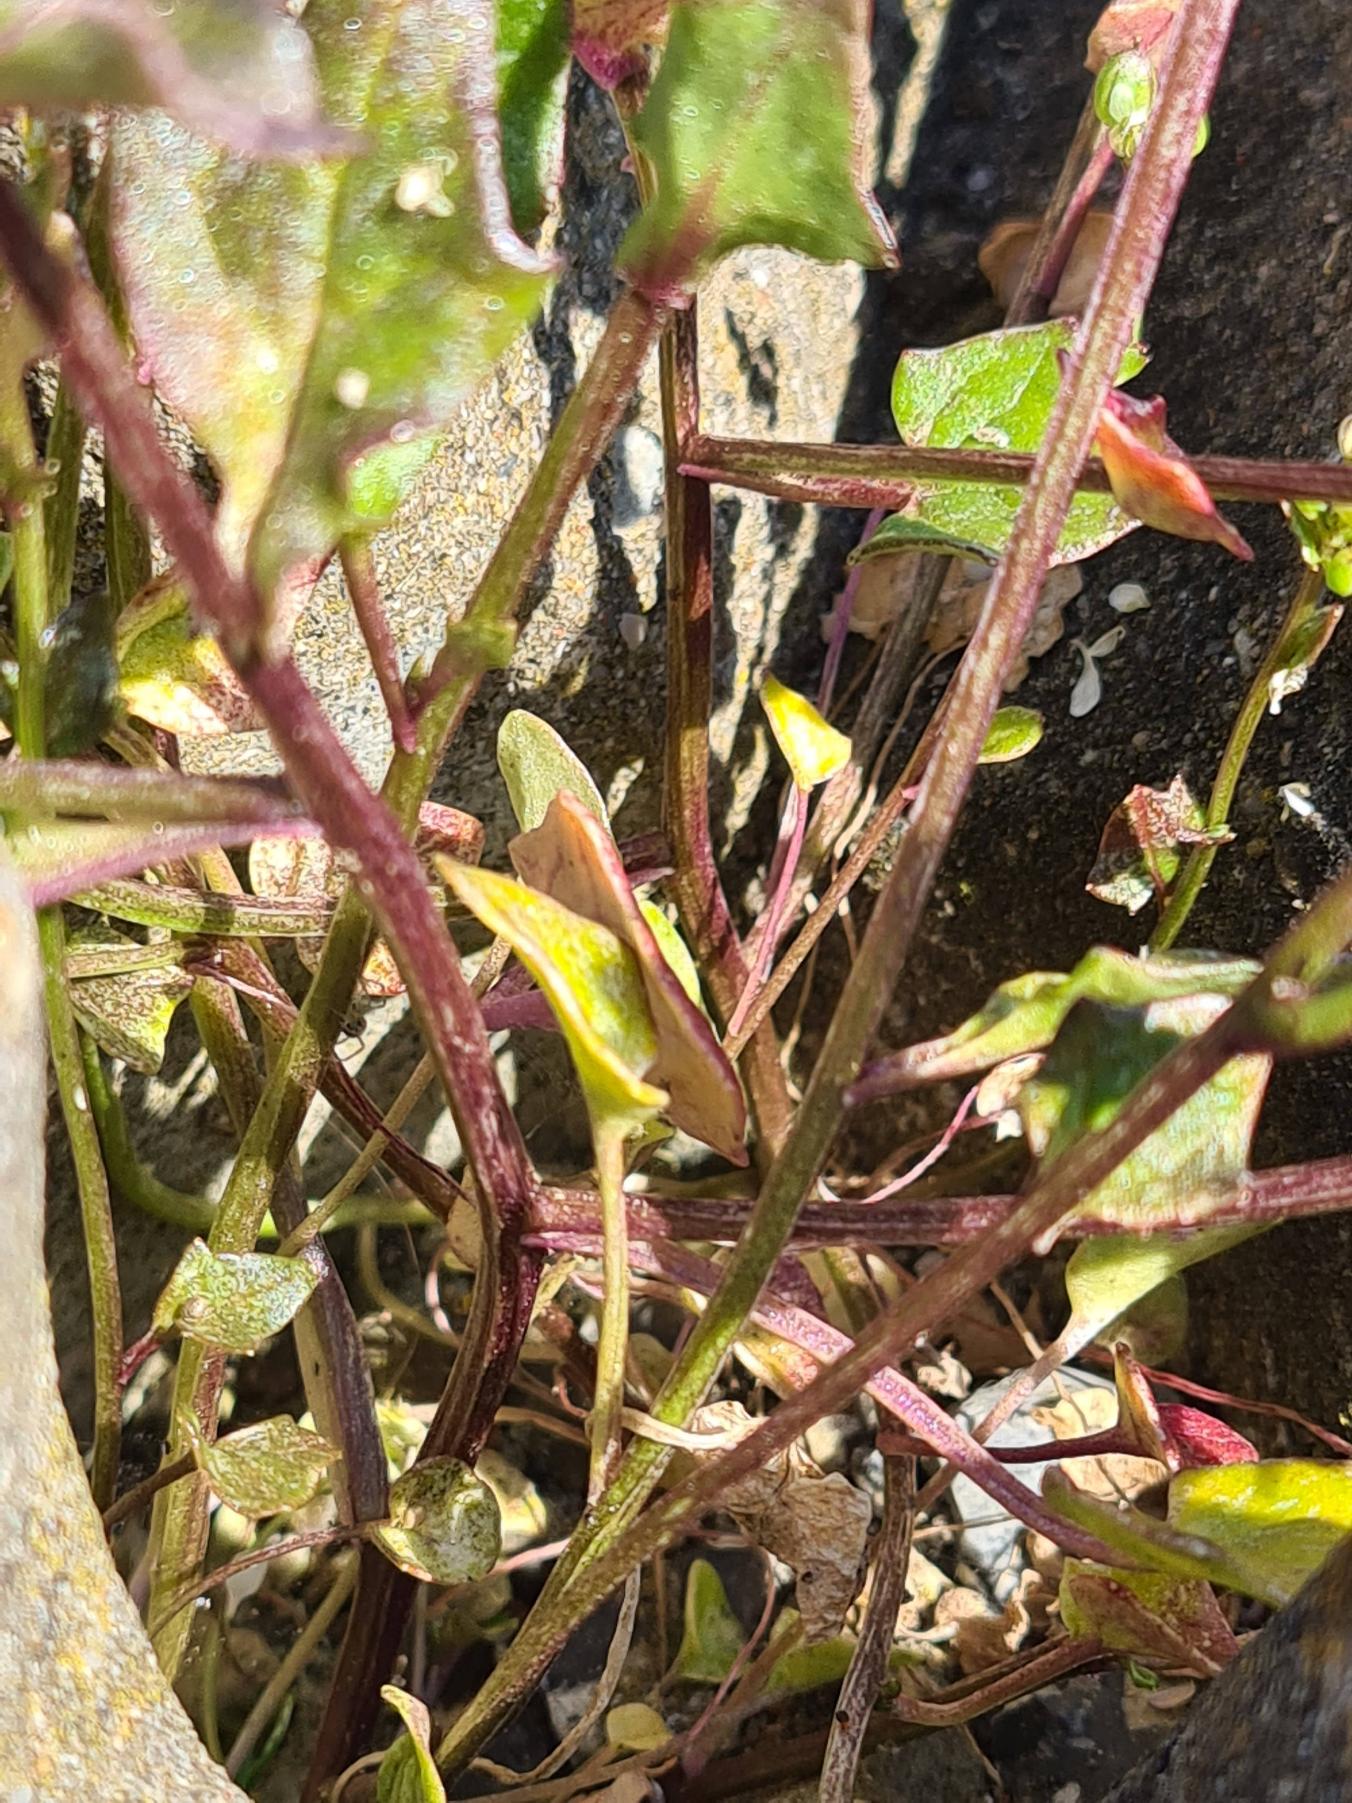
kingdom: Plantae
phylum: Tracheophyta
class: Magnoliopsida
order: Brassicales
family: Brassicaceae
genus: Cochlearia
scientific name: Cochlearia danica
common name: Dansk kokleare
